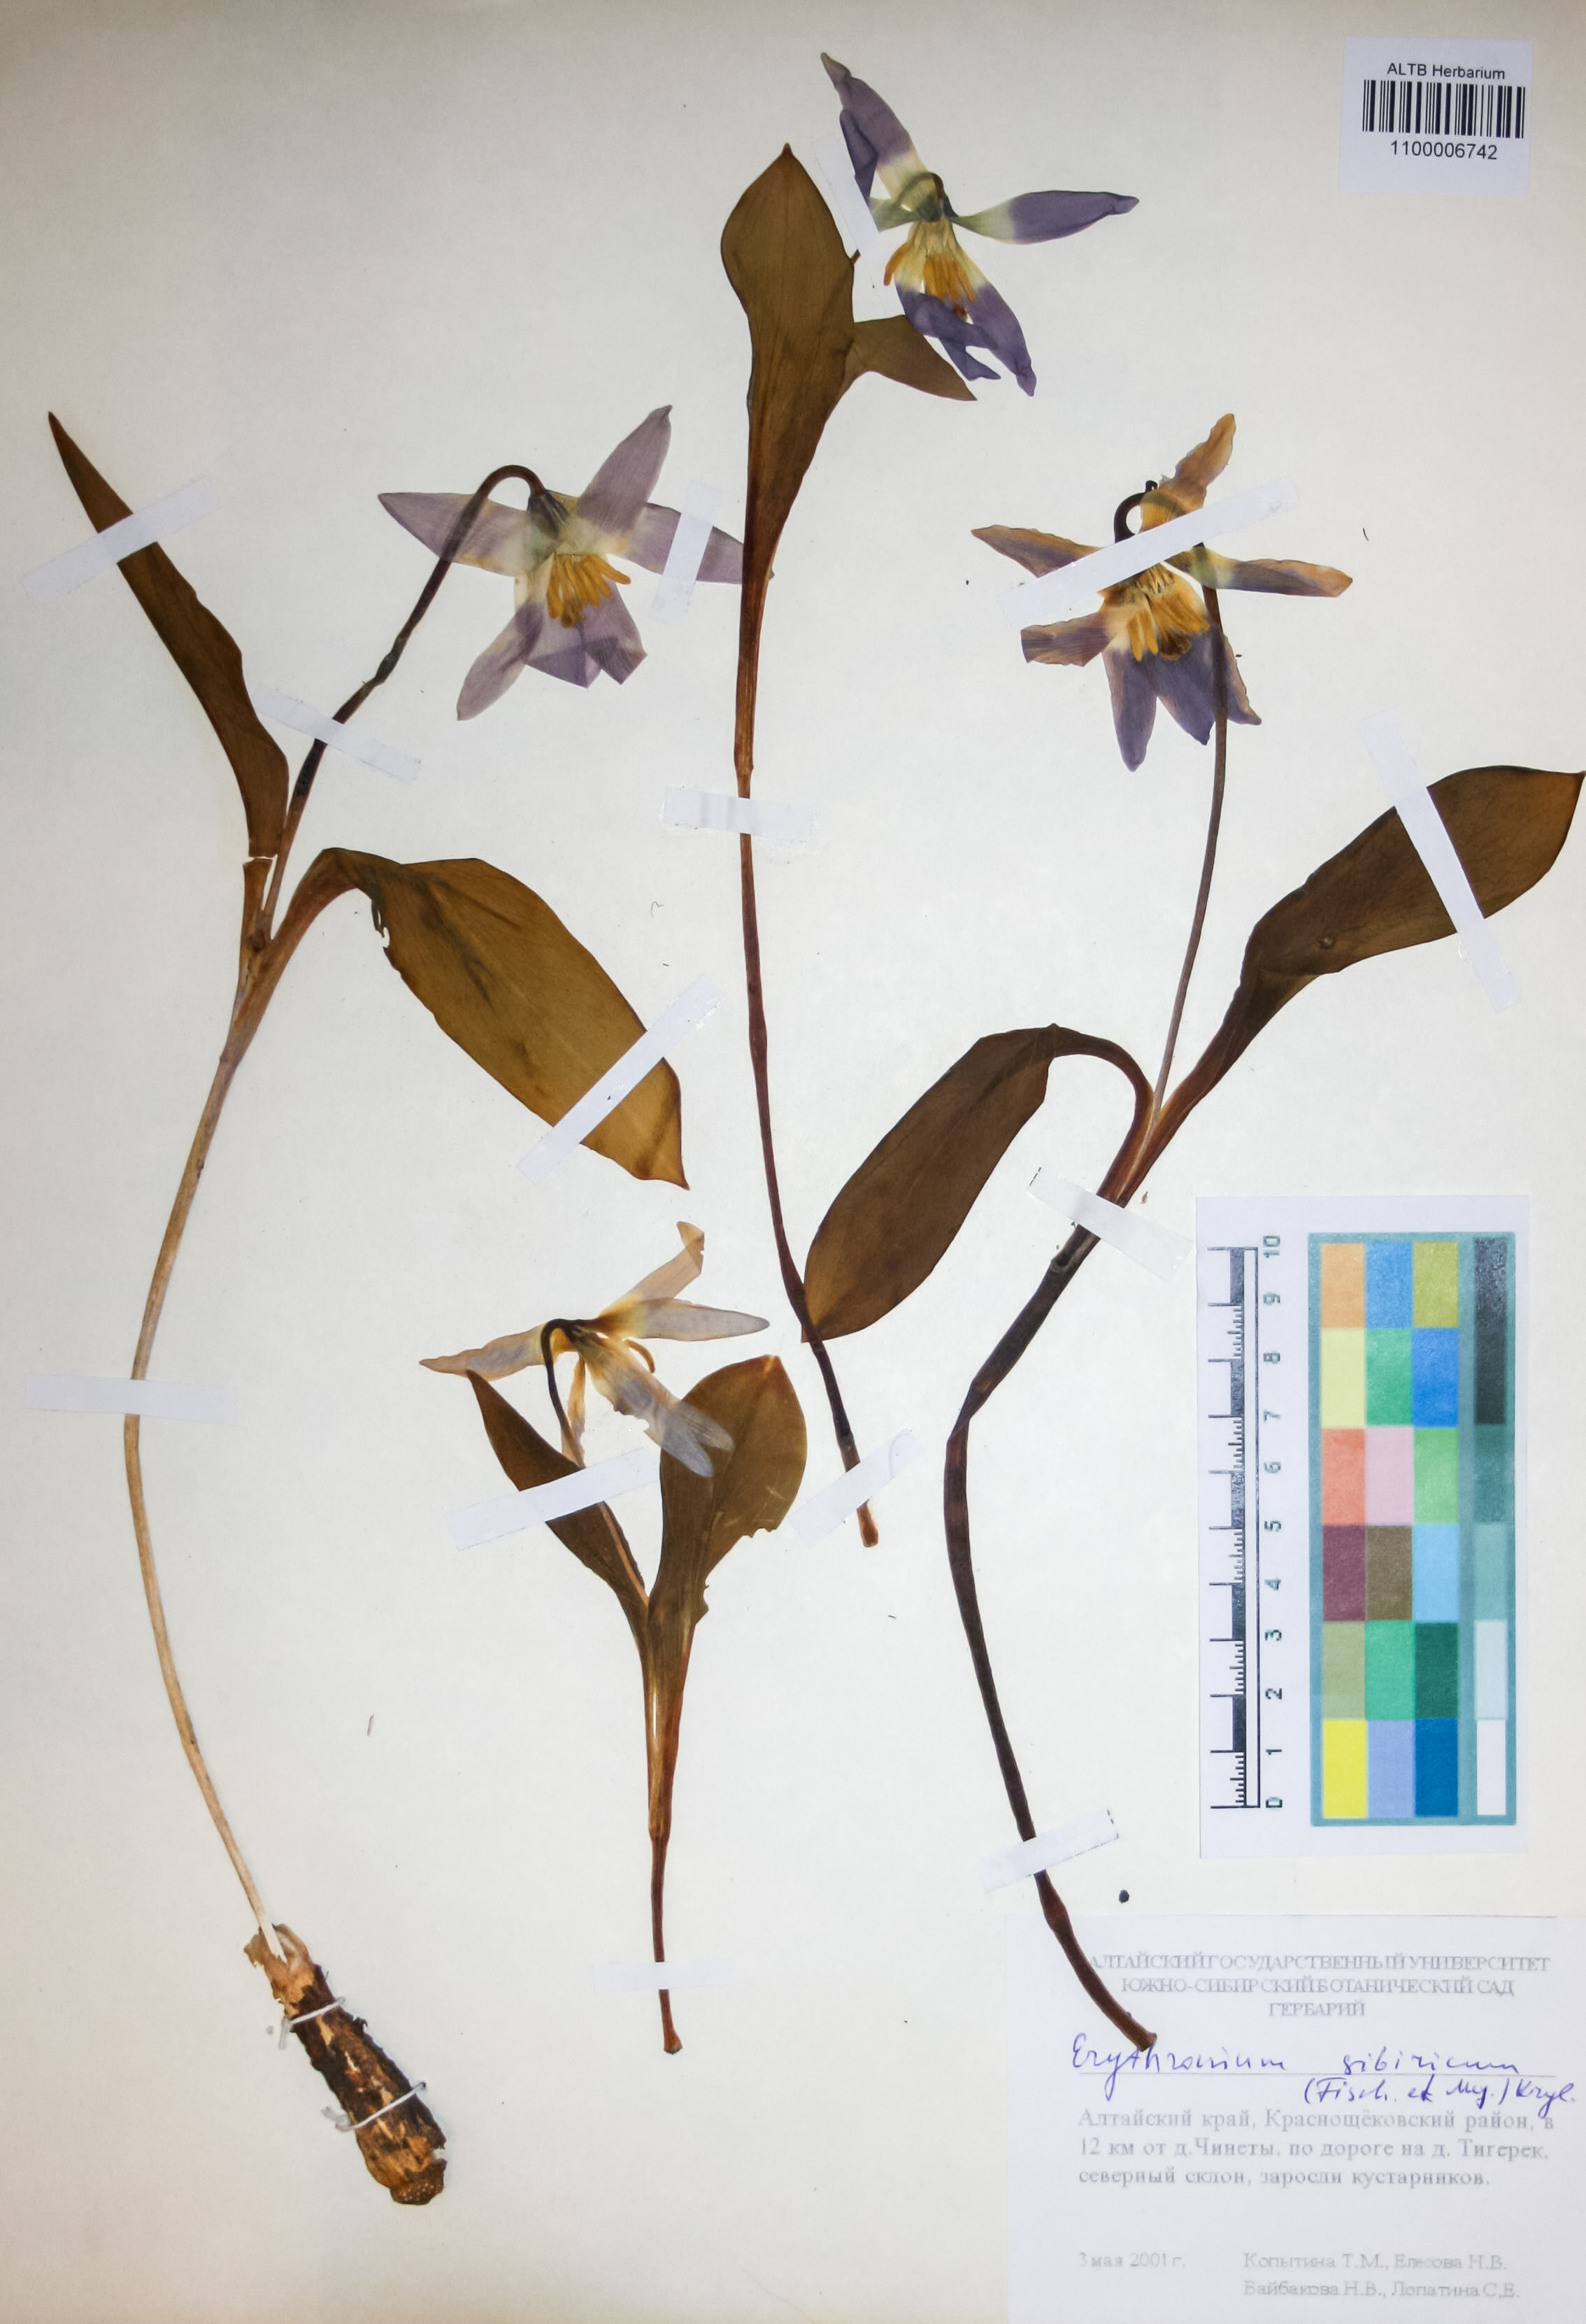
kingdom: Plantae
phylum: Tracheophyta
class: Liliopsida
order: Liliales
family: Liliaceae
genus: Erythronium
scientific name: Erythronium sibiricum
